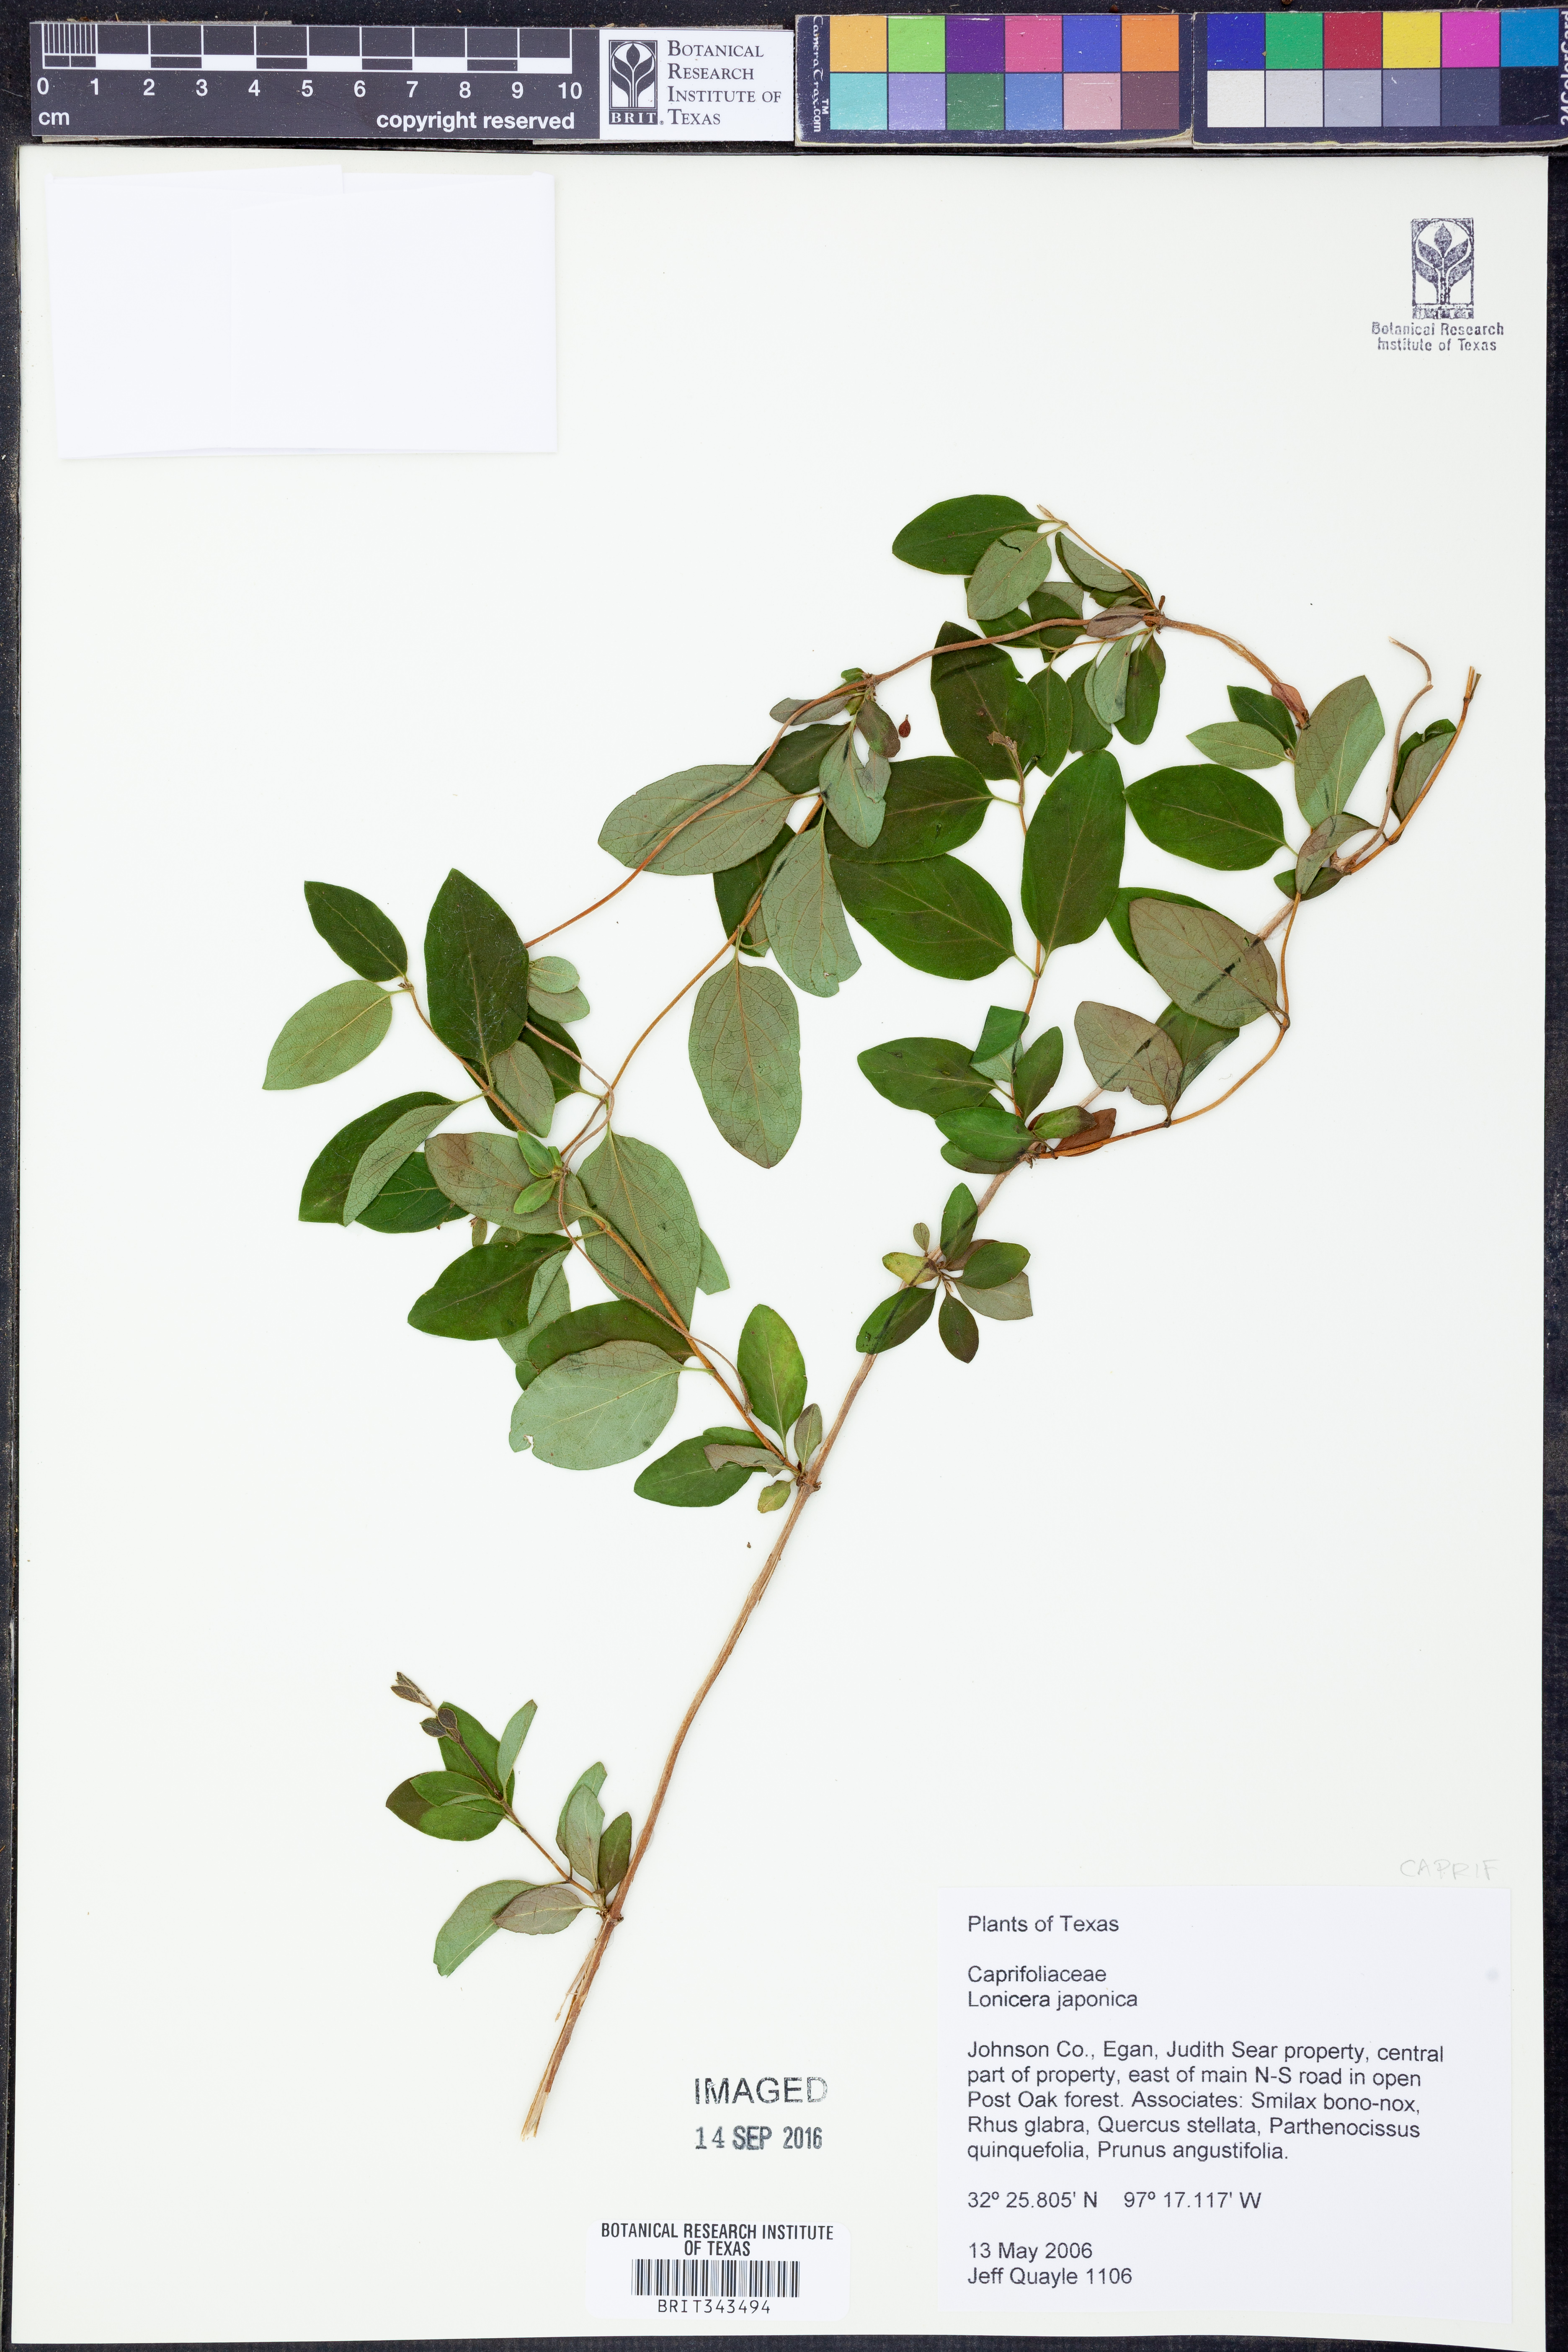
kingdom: Plantae
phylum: Tracheophyta
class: Magnoliopsida
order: Dipsacales
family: Caprifoliaceae
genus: Lonicera
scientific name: Lonicera japonica
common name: Japanese honeysuckle
